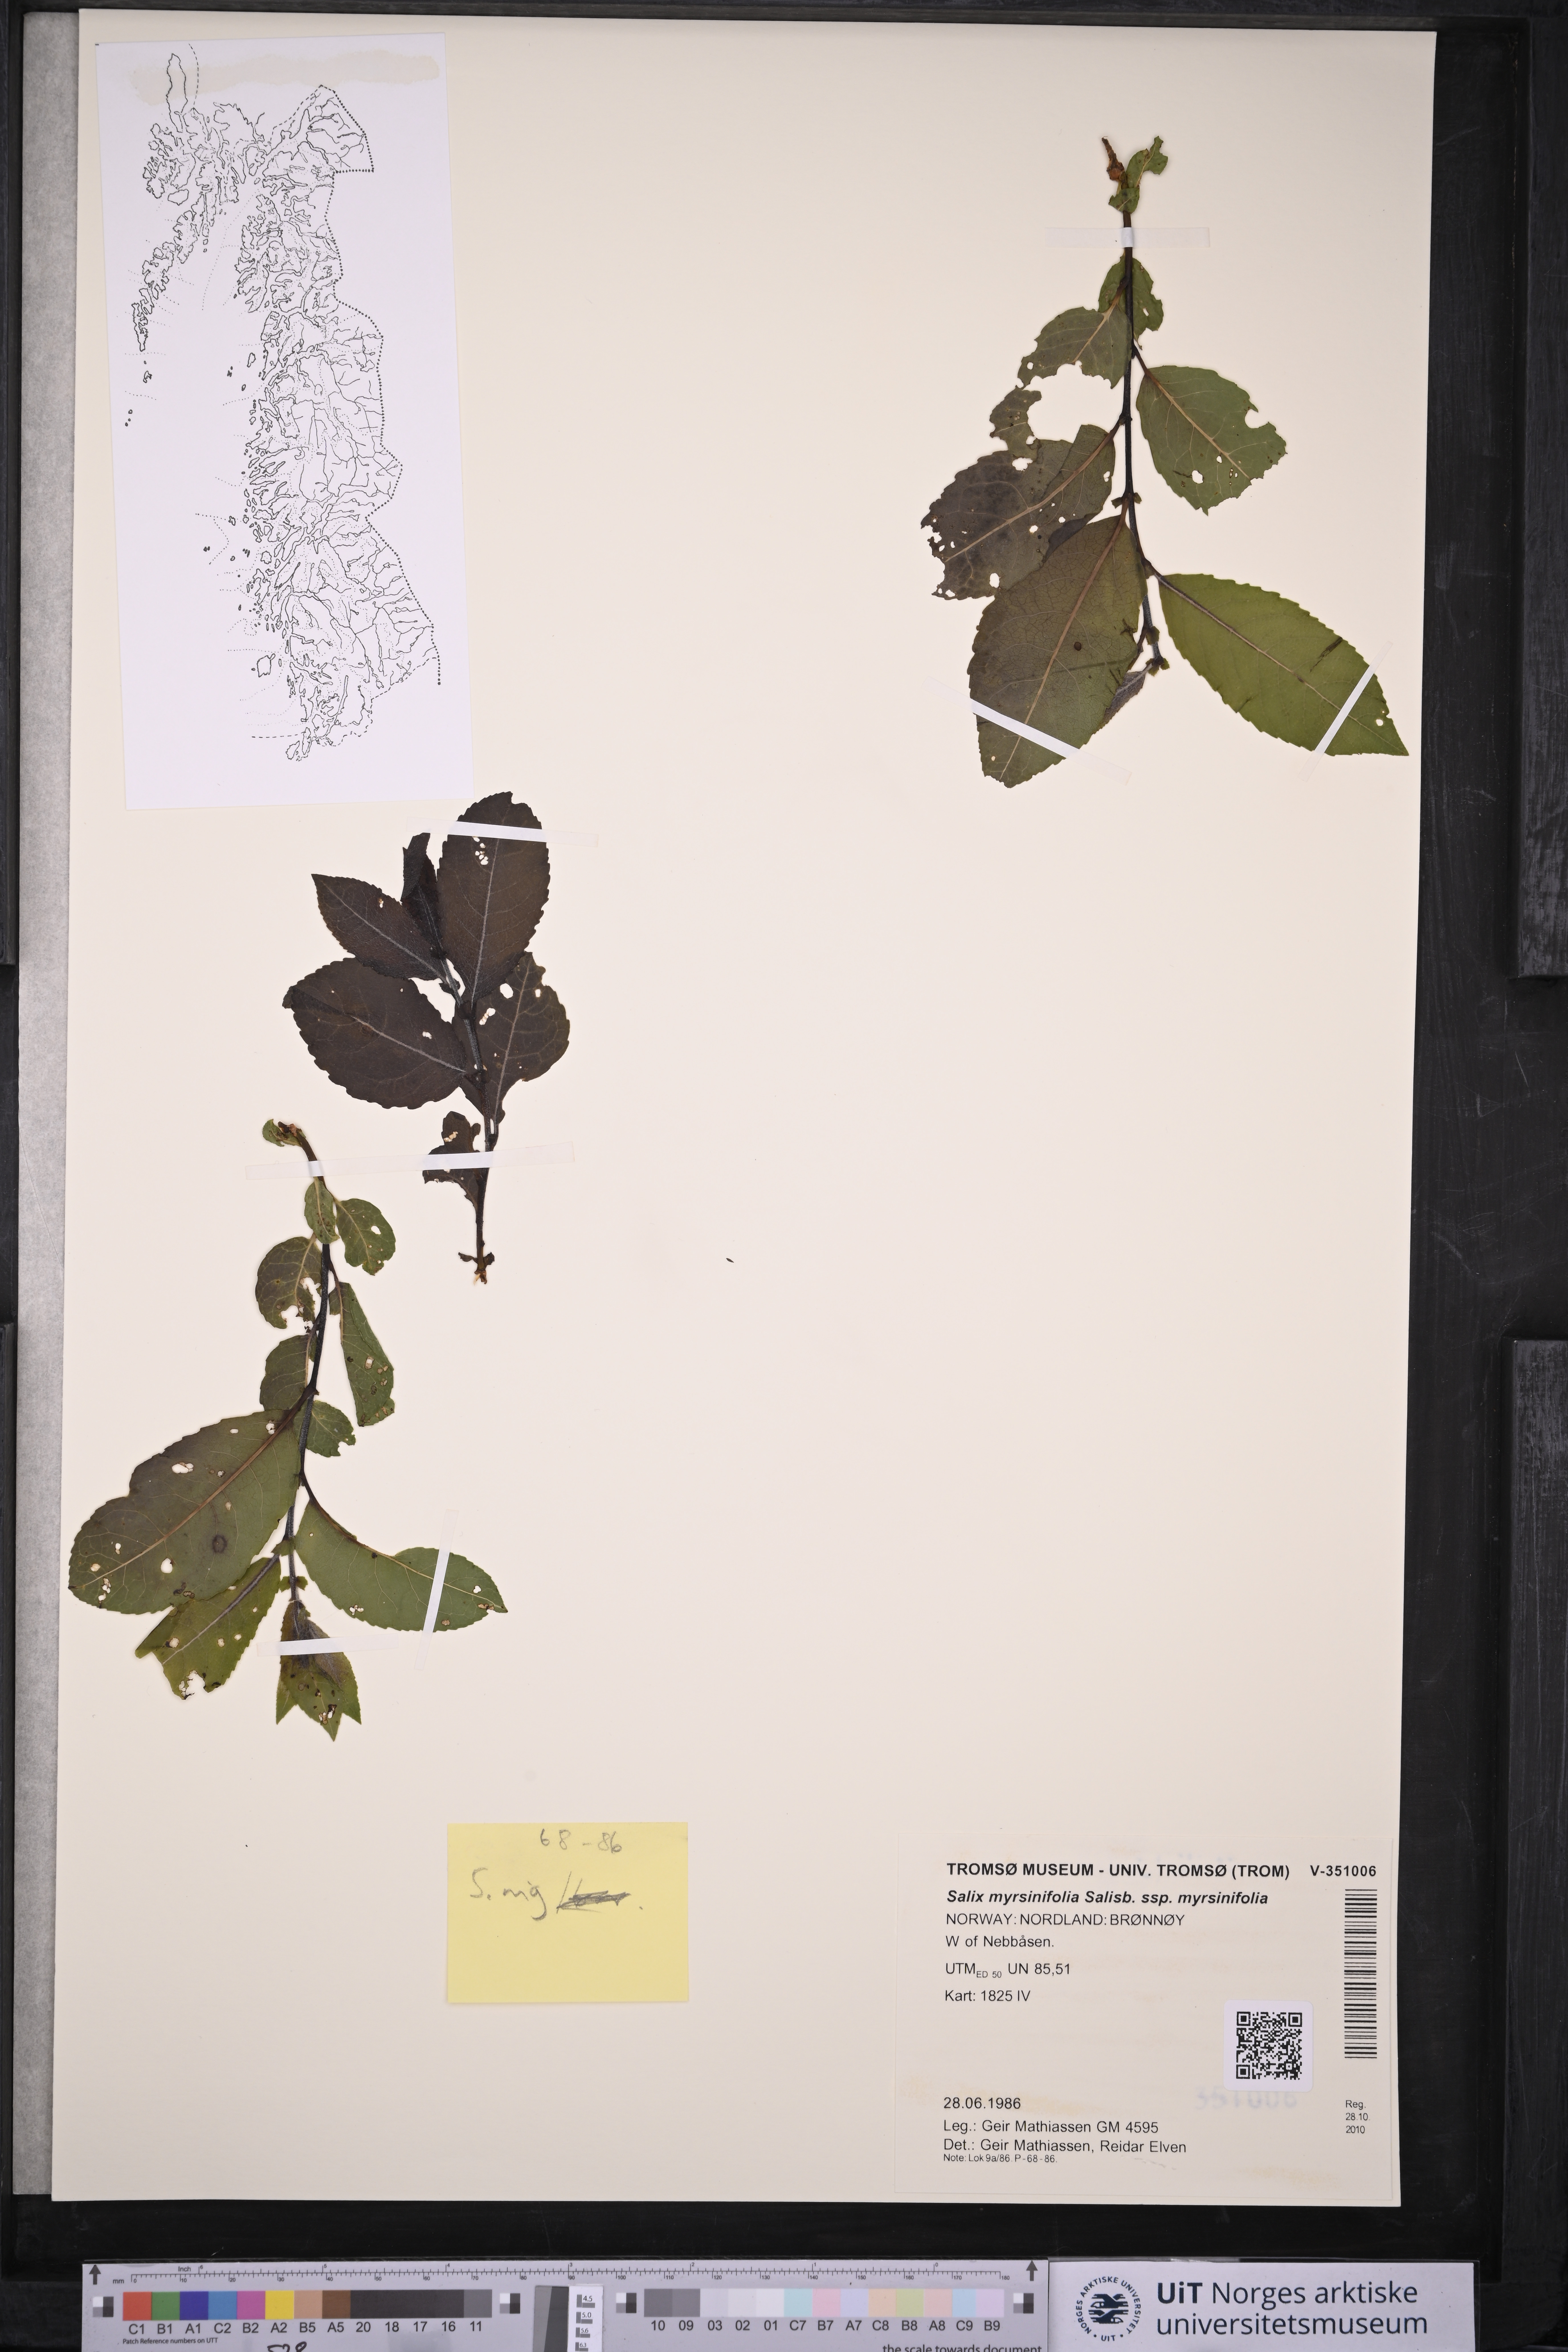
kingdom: Plantae
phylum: Tracheophyta
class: Magnoliopsida
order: Malpighiales
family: Salicaceae
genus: Salix
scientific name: Salix myrsinifolia
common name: Dark-leaved willow
